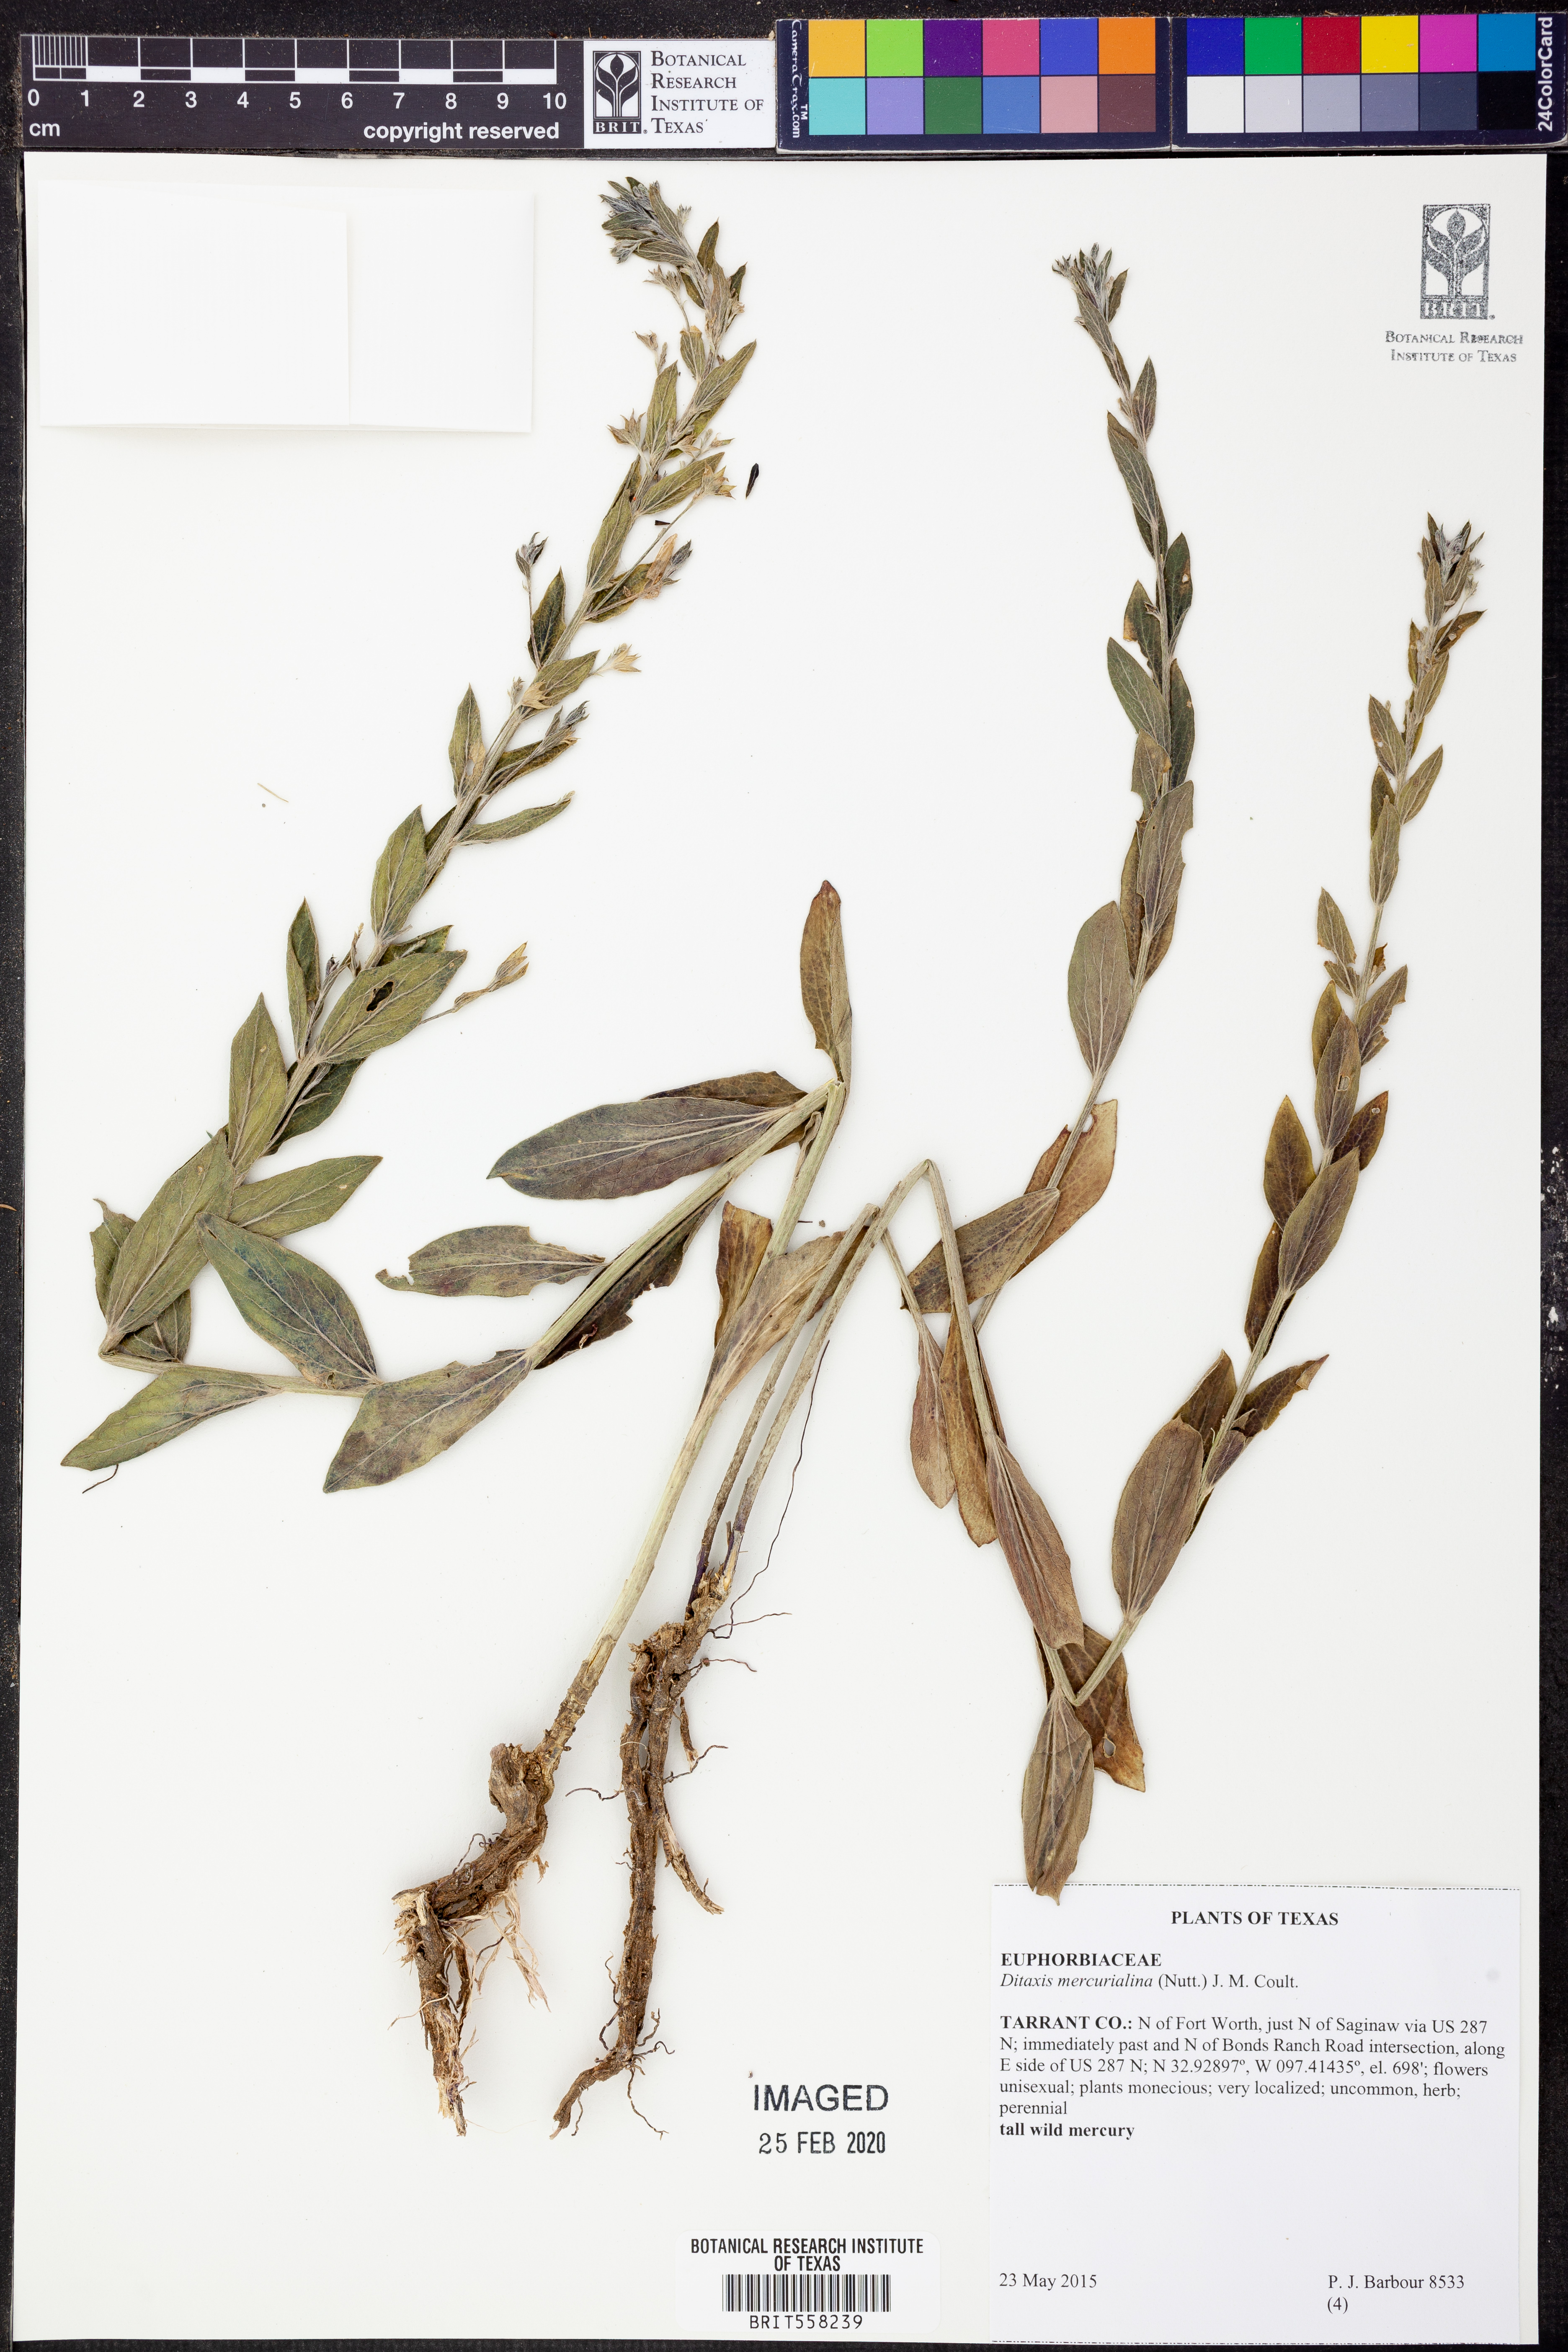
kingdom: Plantae
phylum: Tracheophyta
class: Magnoliopsida
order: Malpighiales
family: Euphorbiaceae
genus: Ditaxis
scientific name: Ditaxis mercurialina
